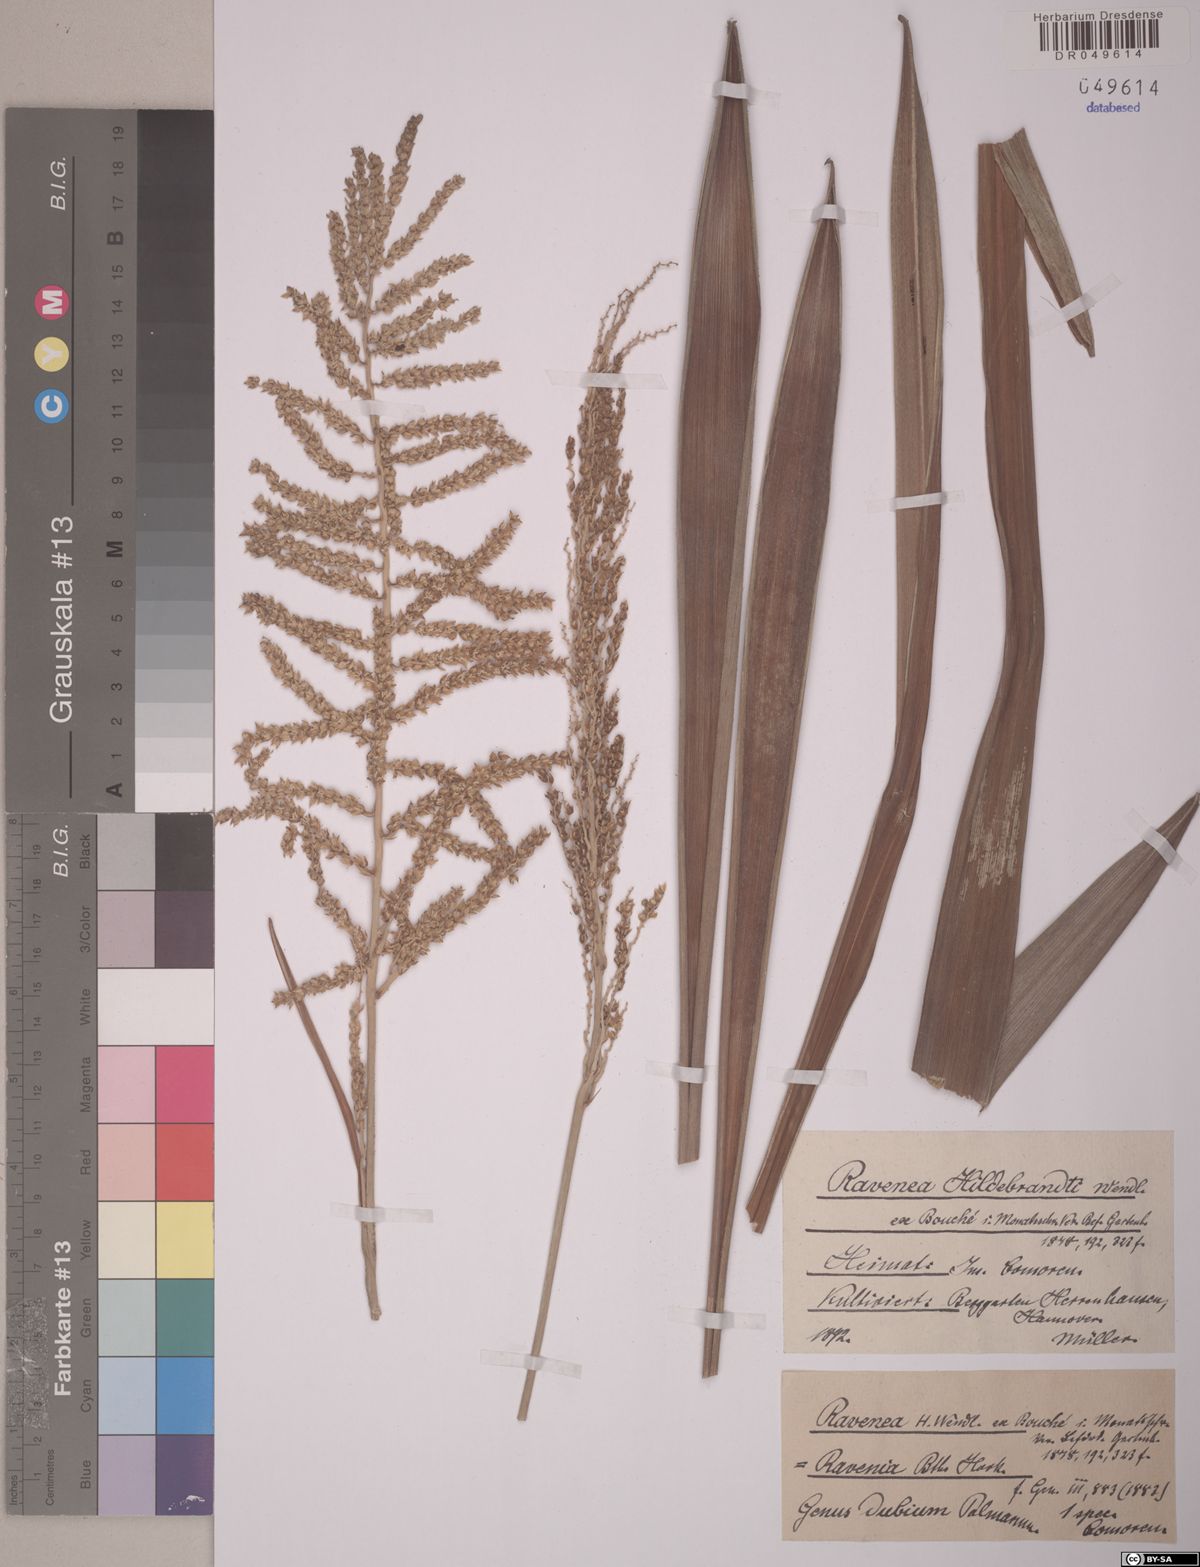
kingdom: Plantae
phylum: Tracheophyta
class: Liliopsida
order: Arecales
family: Arecaceae
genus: Ravenea
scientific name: Ravenea hildebrandtii
